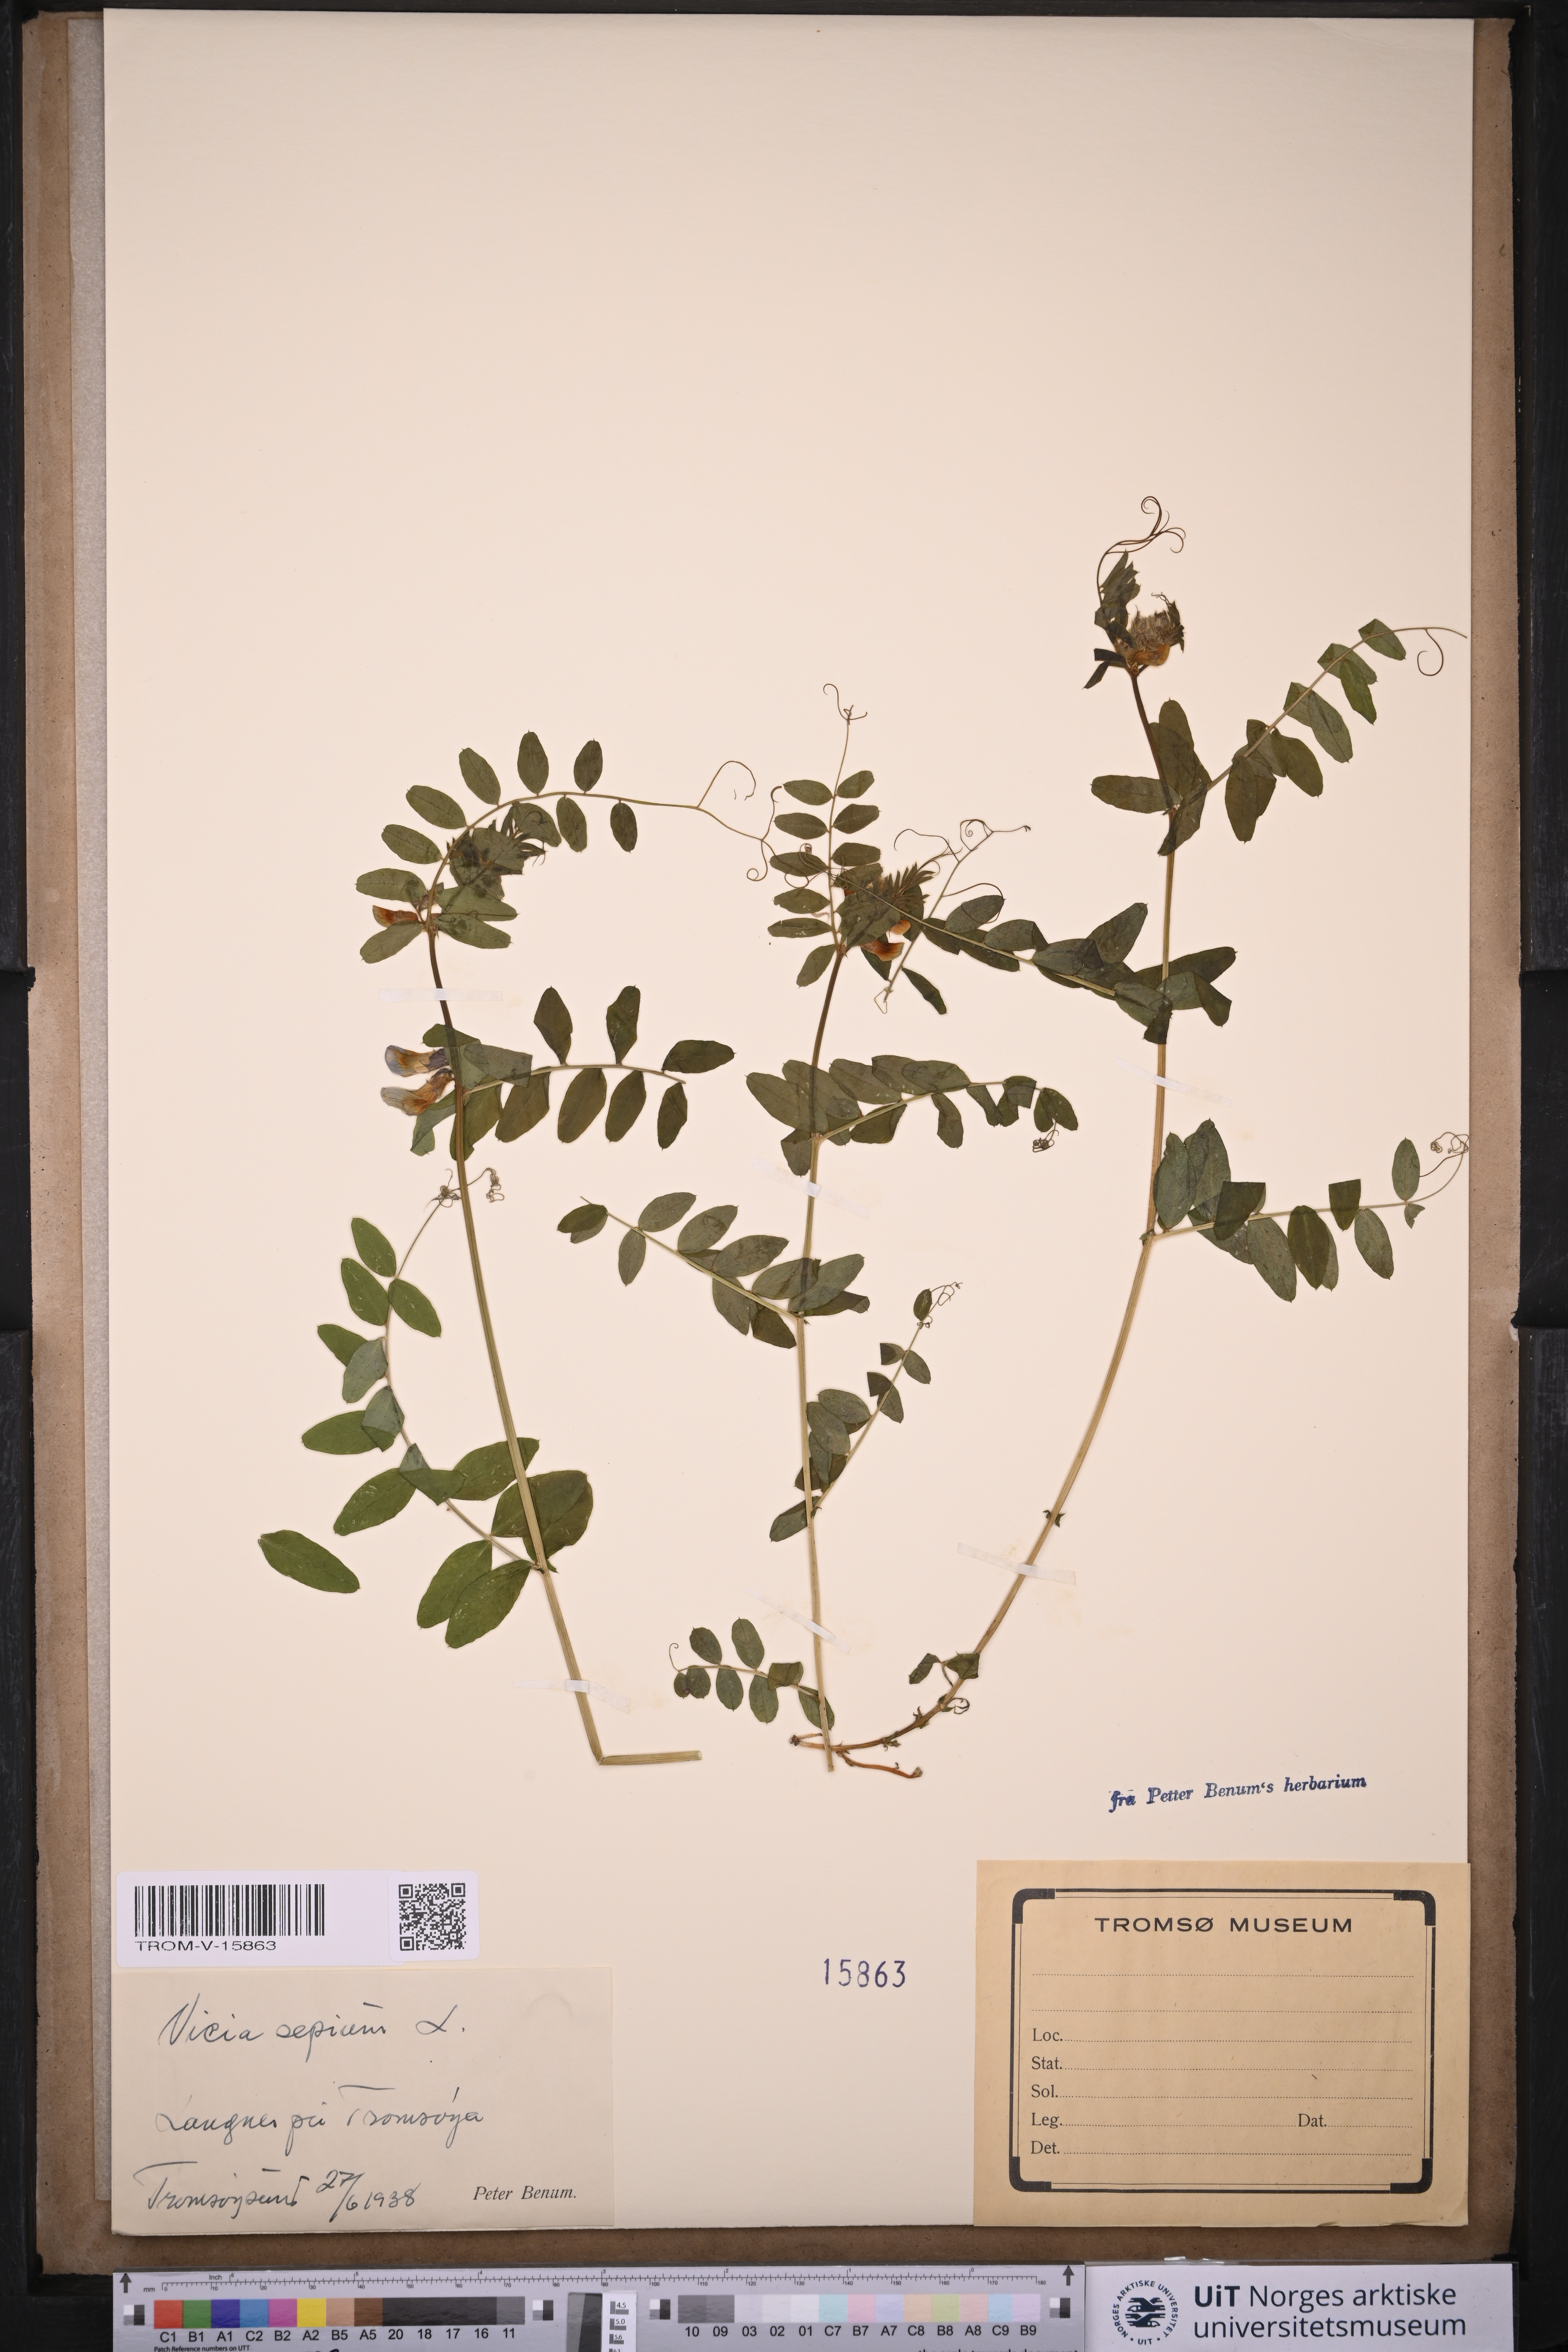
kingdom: Plantae
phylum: Tracheophyta
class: Magnoliopsida
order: Fabales
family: Fabaceae
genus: Vicia
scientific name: Vicia sepium
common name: Bush vetch
